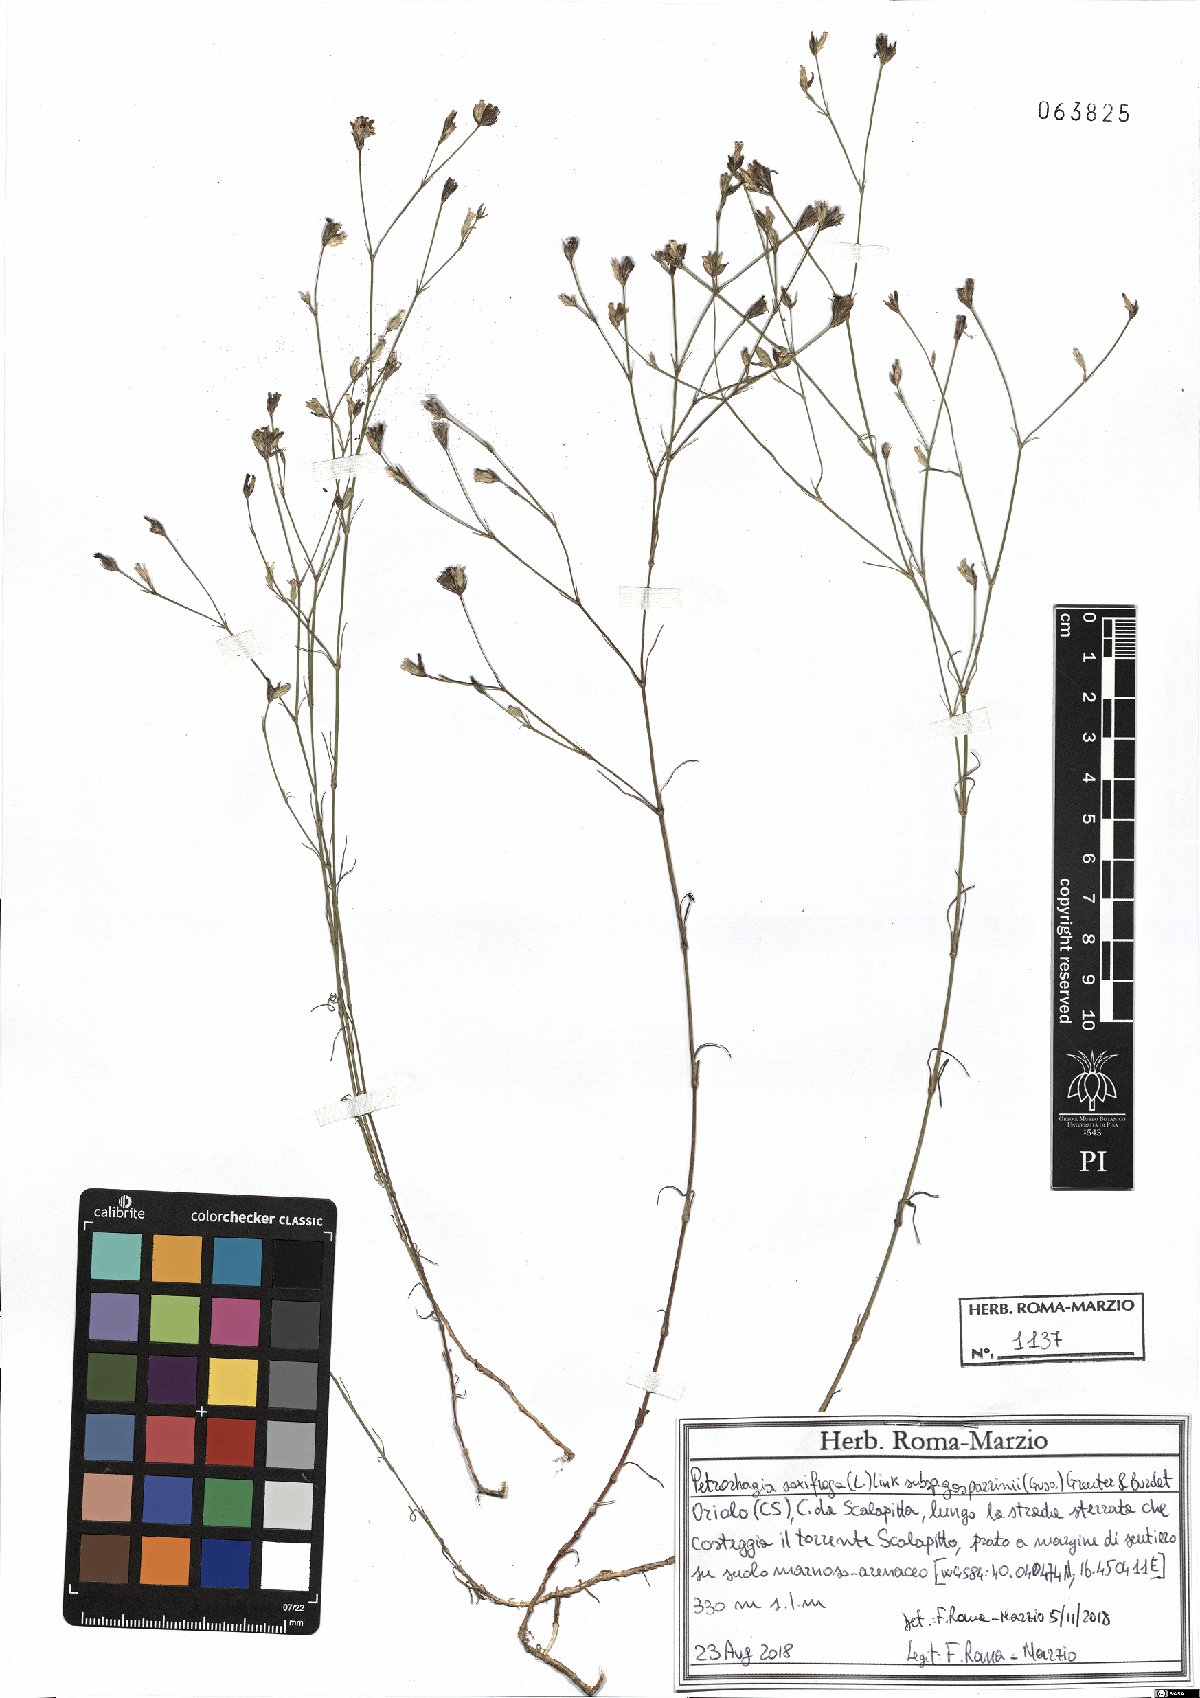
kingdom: Plantae
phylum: Tracheophyta
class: Magnoliopsida
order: Caryophyllales
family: Caryophyllaceae
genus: Petrorhagia
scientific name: Petrorhagia saxifraga
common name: Tunicflower
